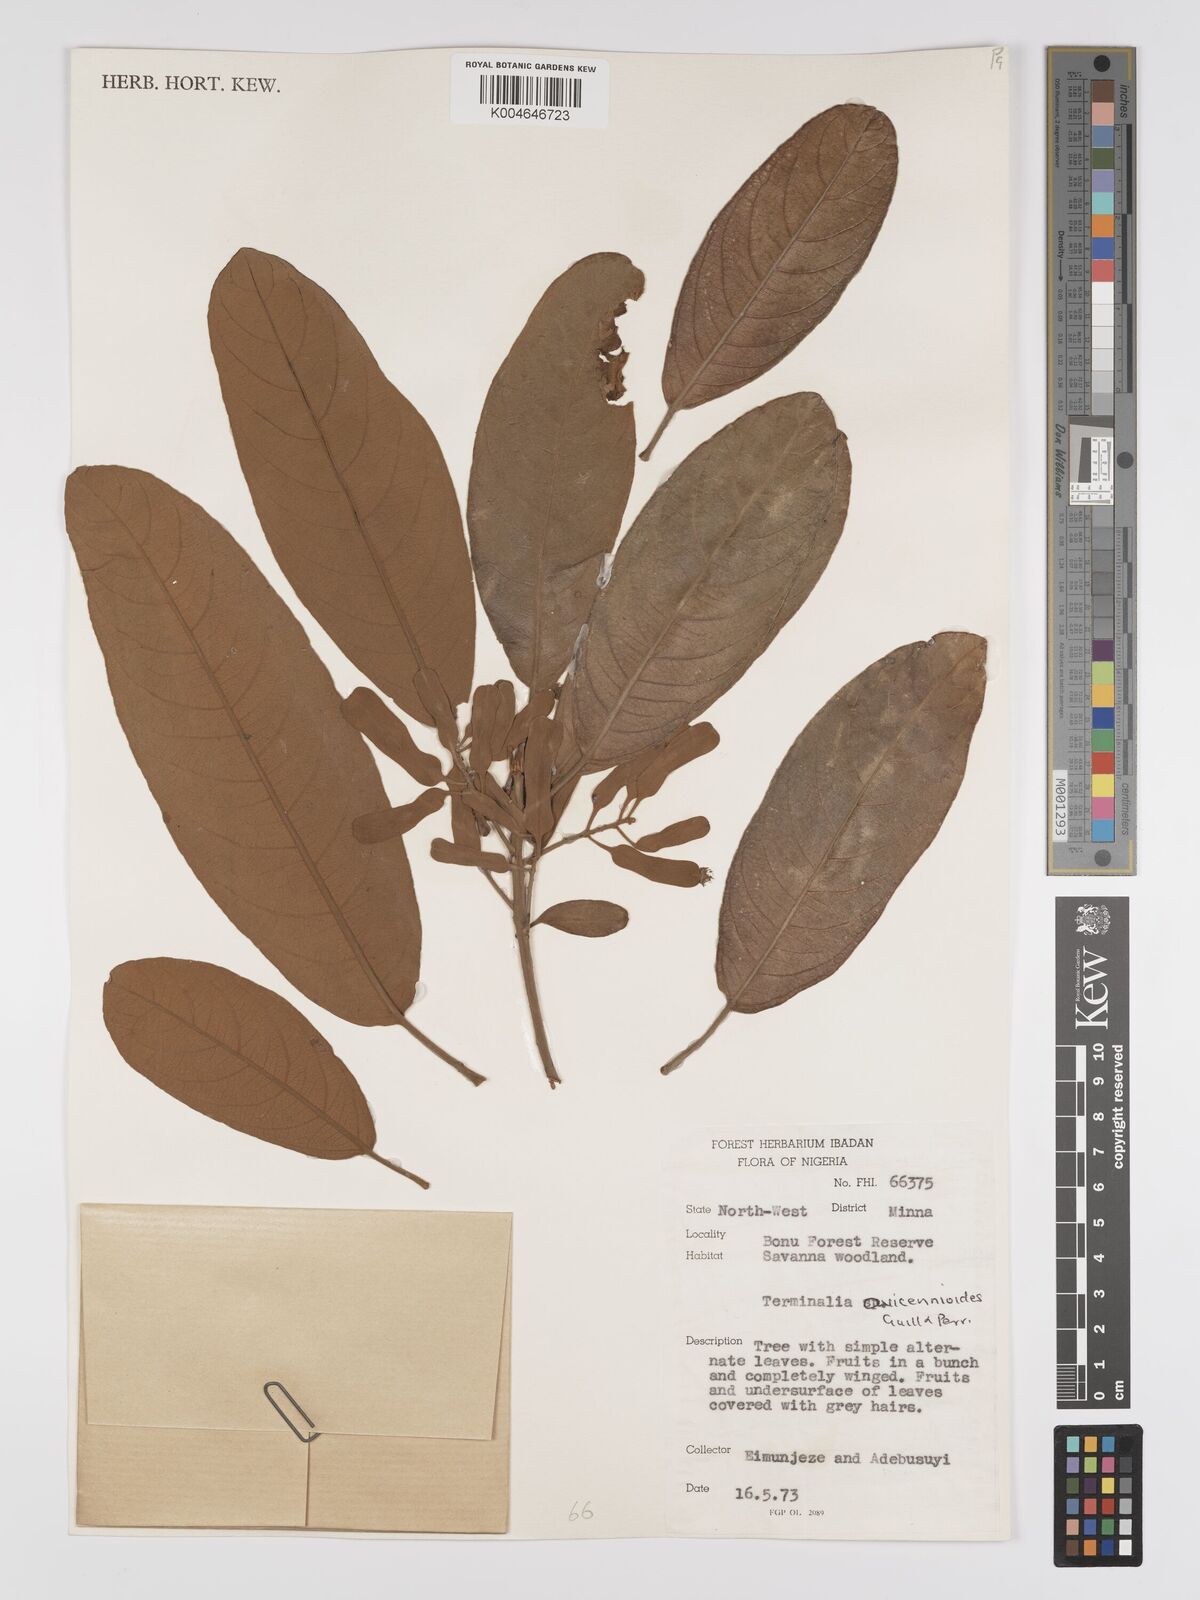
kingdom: Plantae
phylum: Tracheophyta
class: Magnoliopsida
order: Myrtales
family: Combretaceae
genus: Terminalia
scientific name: Terminalia avicennioides
